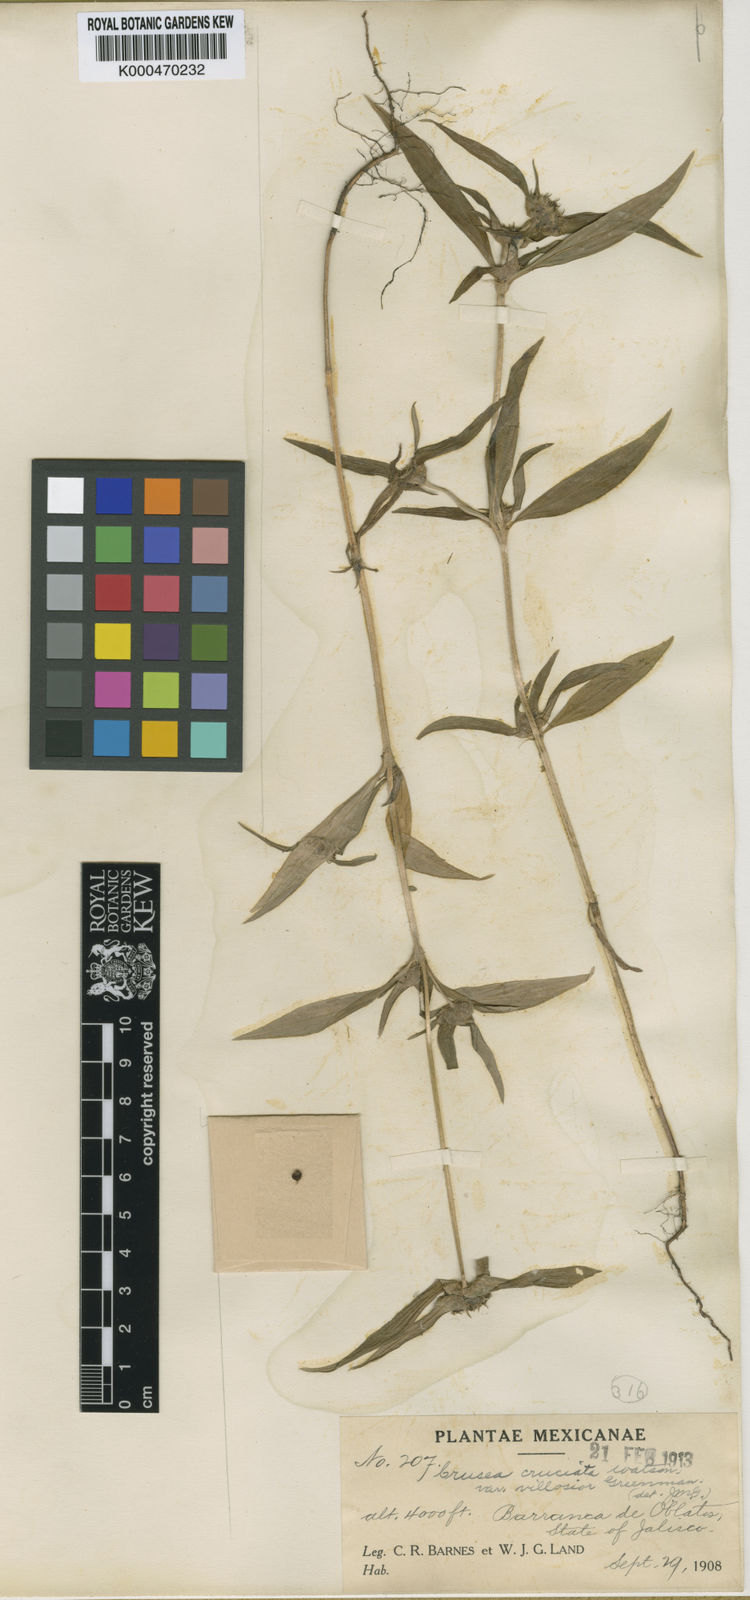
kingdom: Plantae
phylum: Tracheophyta
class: Magnoliopsida
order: Gentianales
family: Rubiaceae
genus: Crusea
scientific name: Crusea setosa
